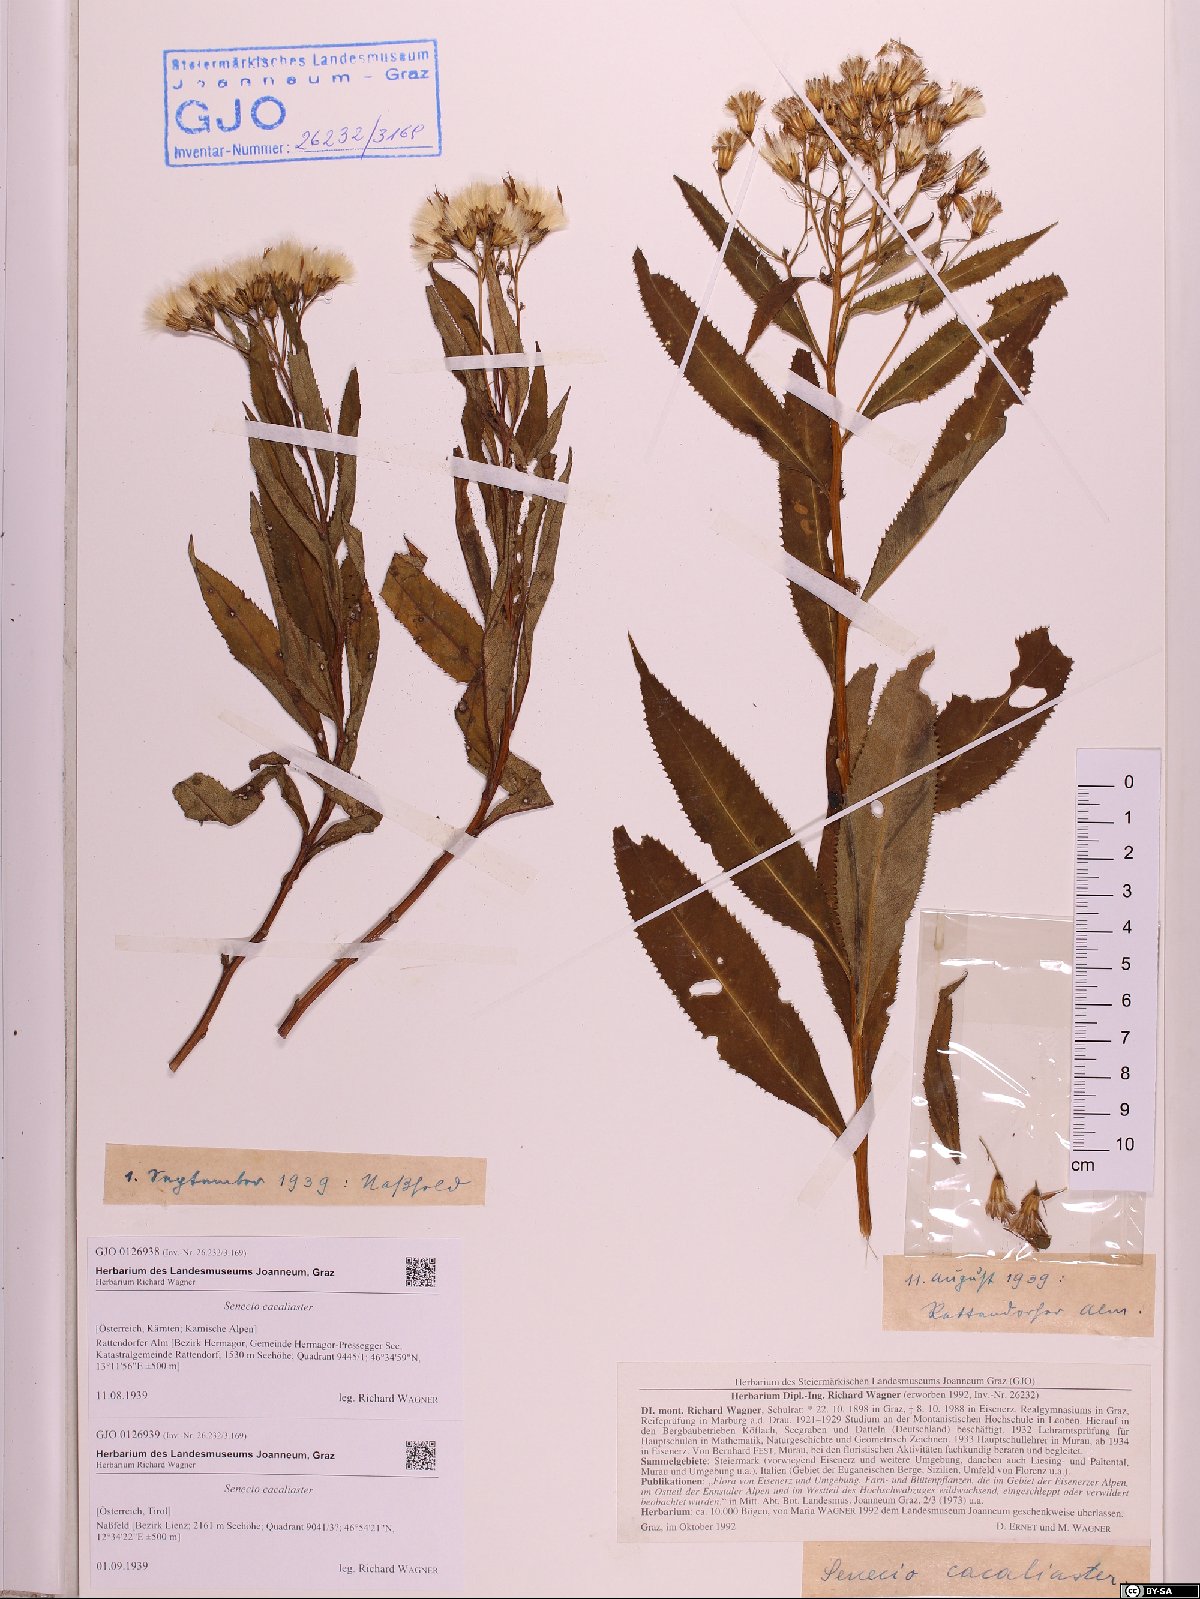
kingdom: Plantae
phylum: Tracheophyta
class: Magnoliopsida
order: Asterales
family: Asteraceae
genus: Senecio
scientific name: Senecio cacaliaster
